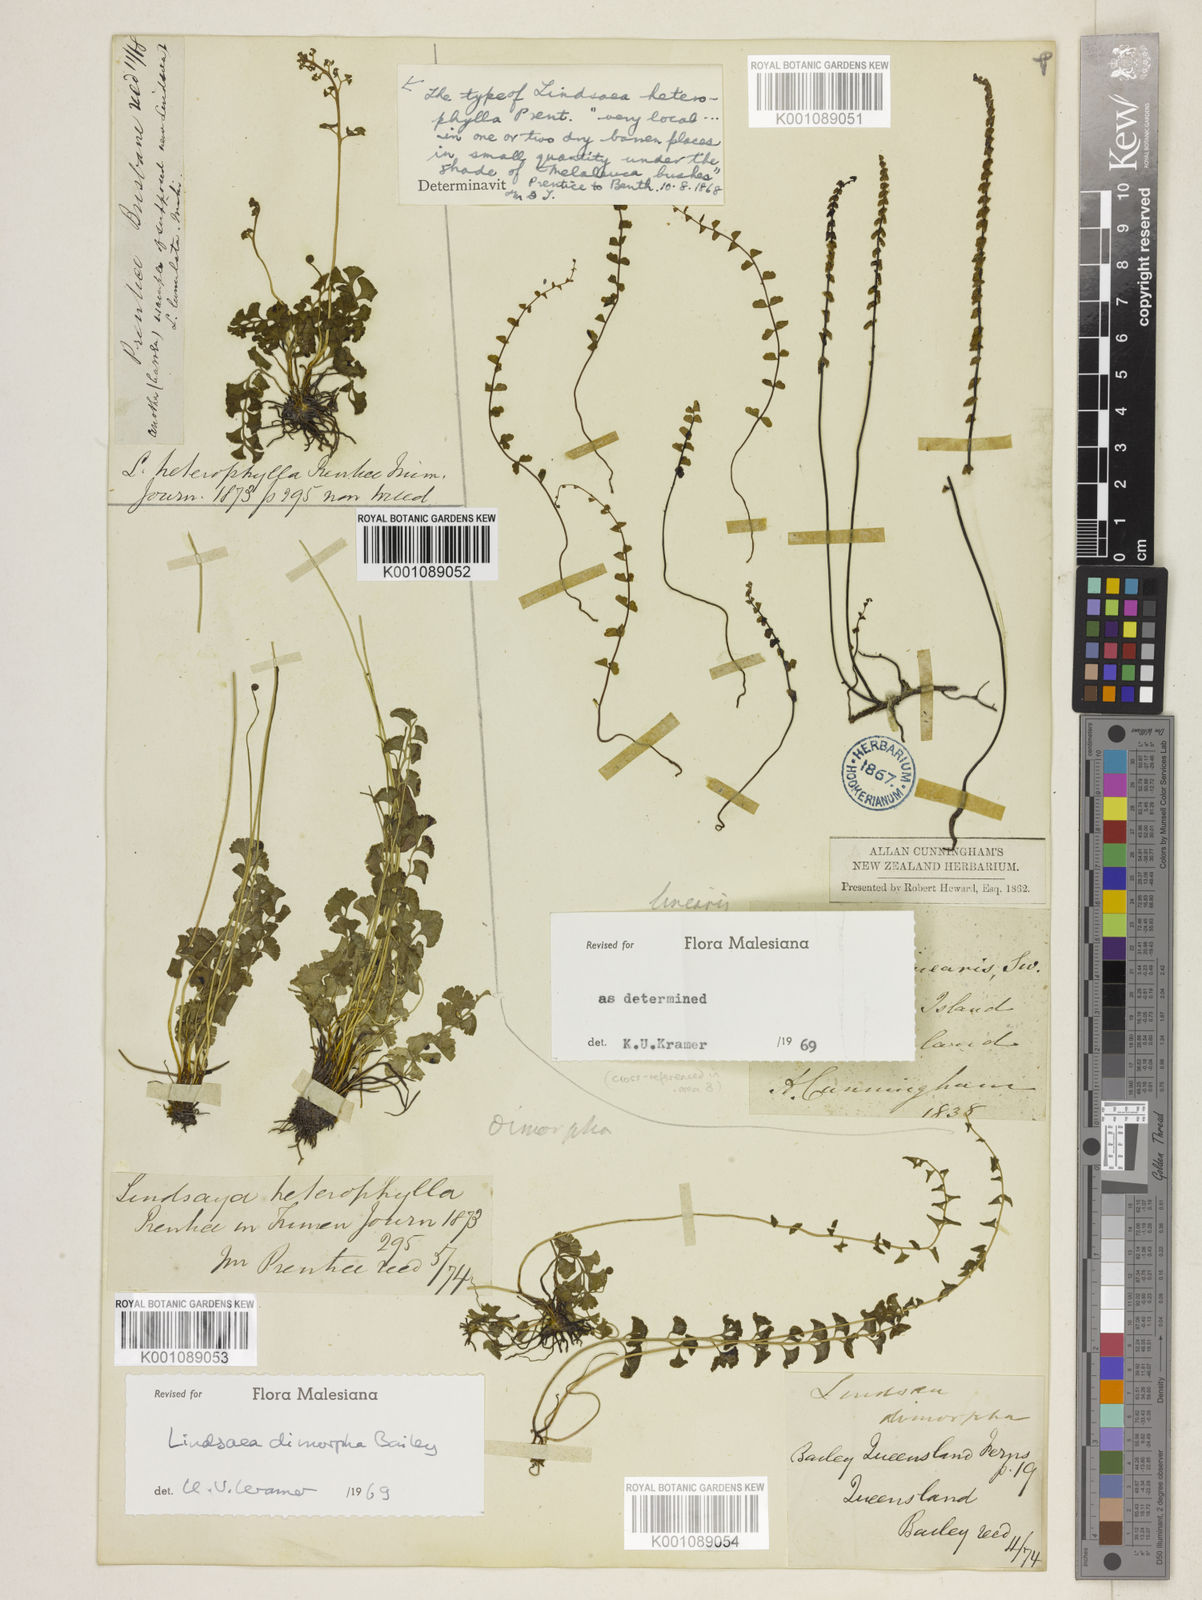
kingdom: Plantae
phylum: Tracheophyta
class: Polypodiopsida
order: Polypodiales
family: Lindsaeaceae
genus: Lindsaea
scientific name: Lindsaea dimorpha
